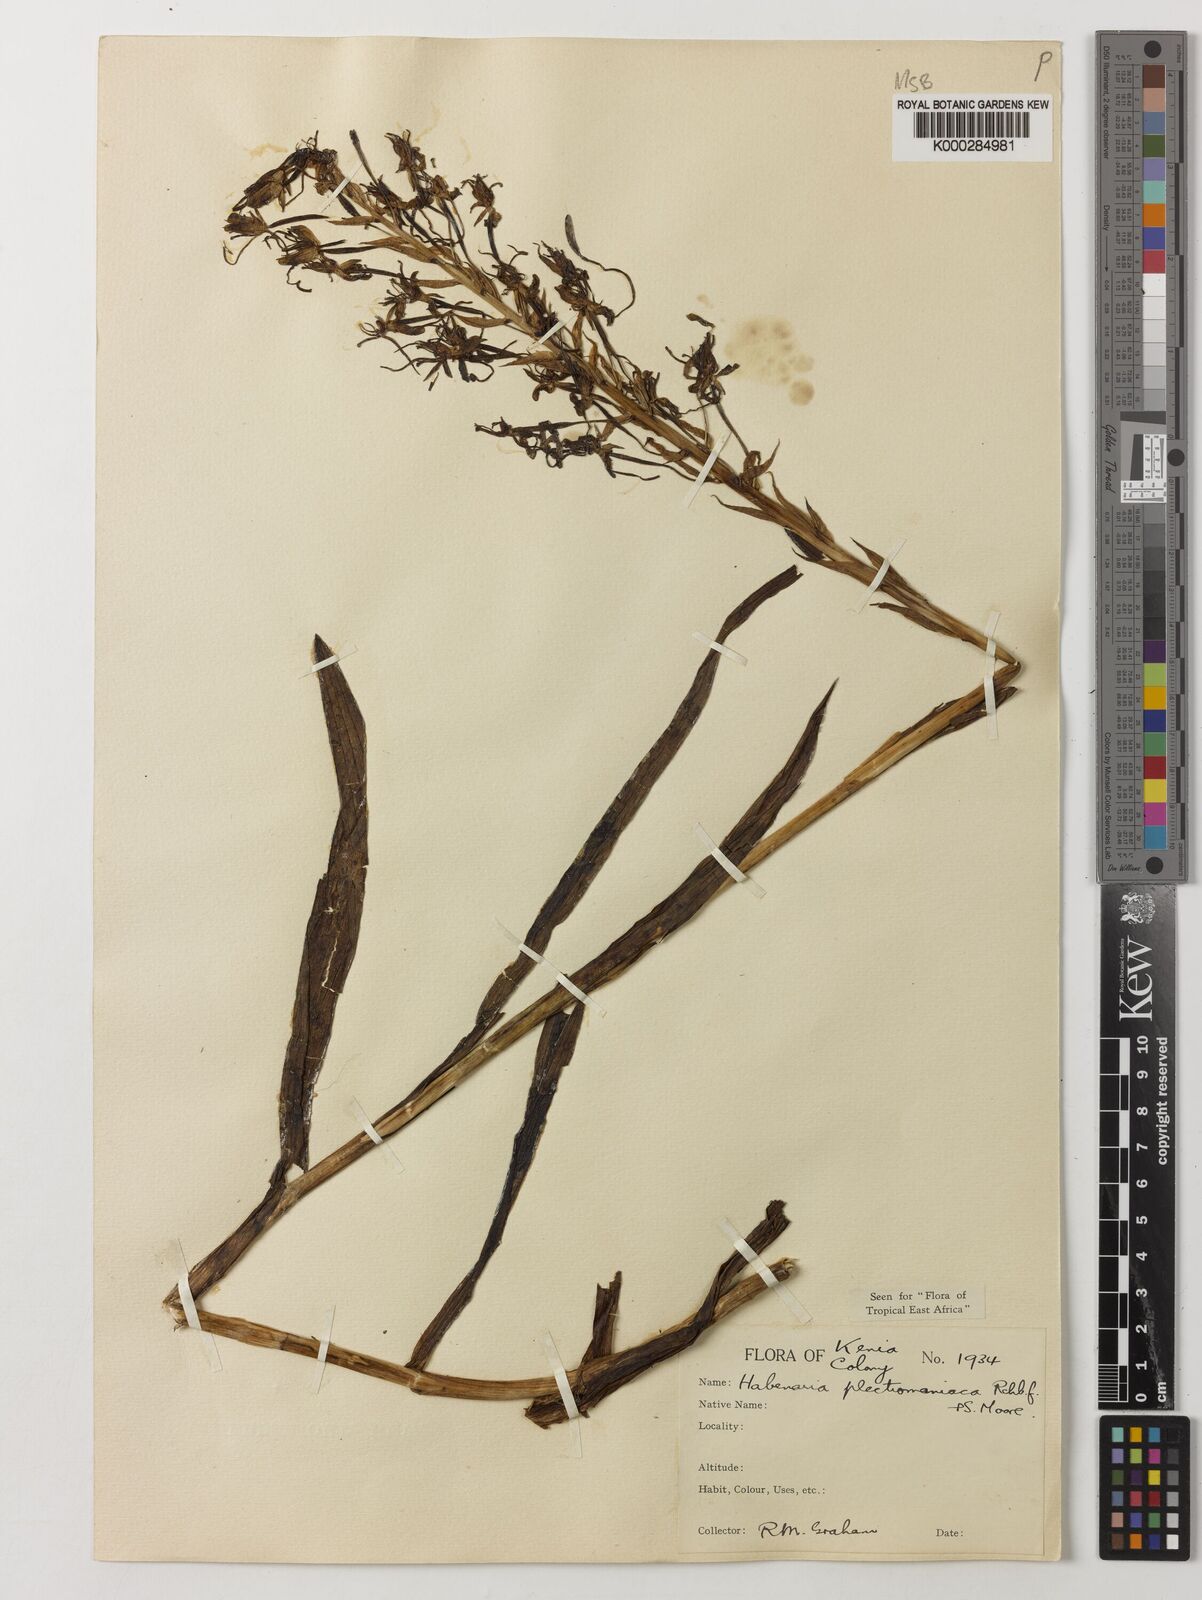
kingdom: Plantae
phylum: Tracheophyta
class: Liliopsida
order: Asparagales
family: Orchidaceae
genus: Habenaria
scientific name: Habenaria plectromaniaca
